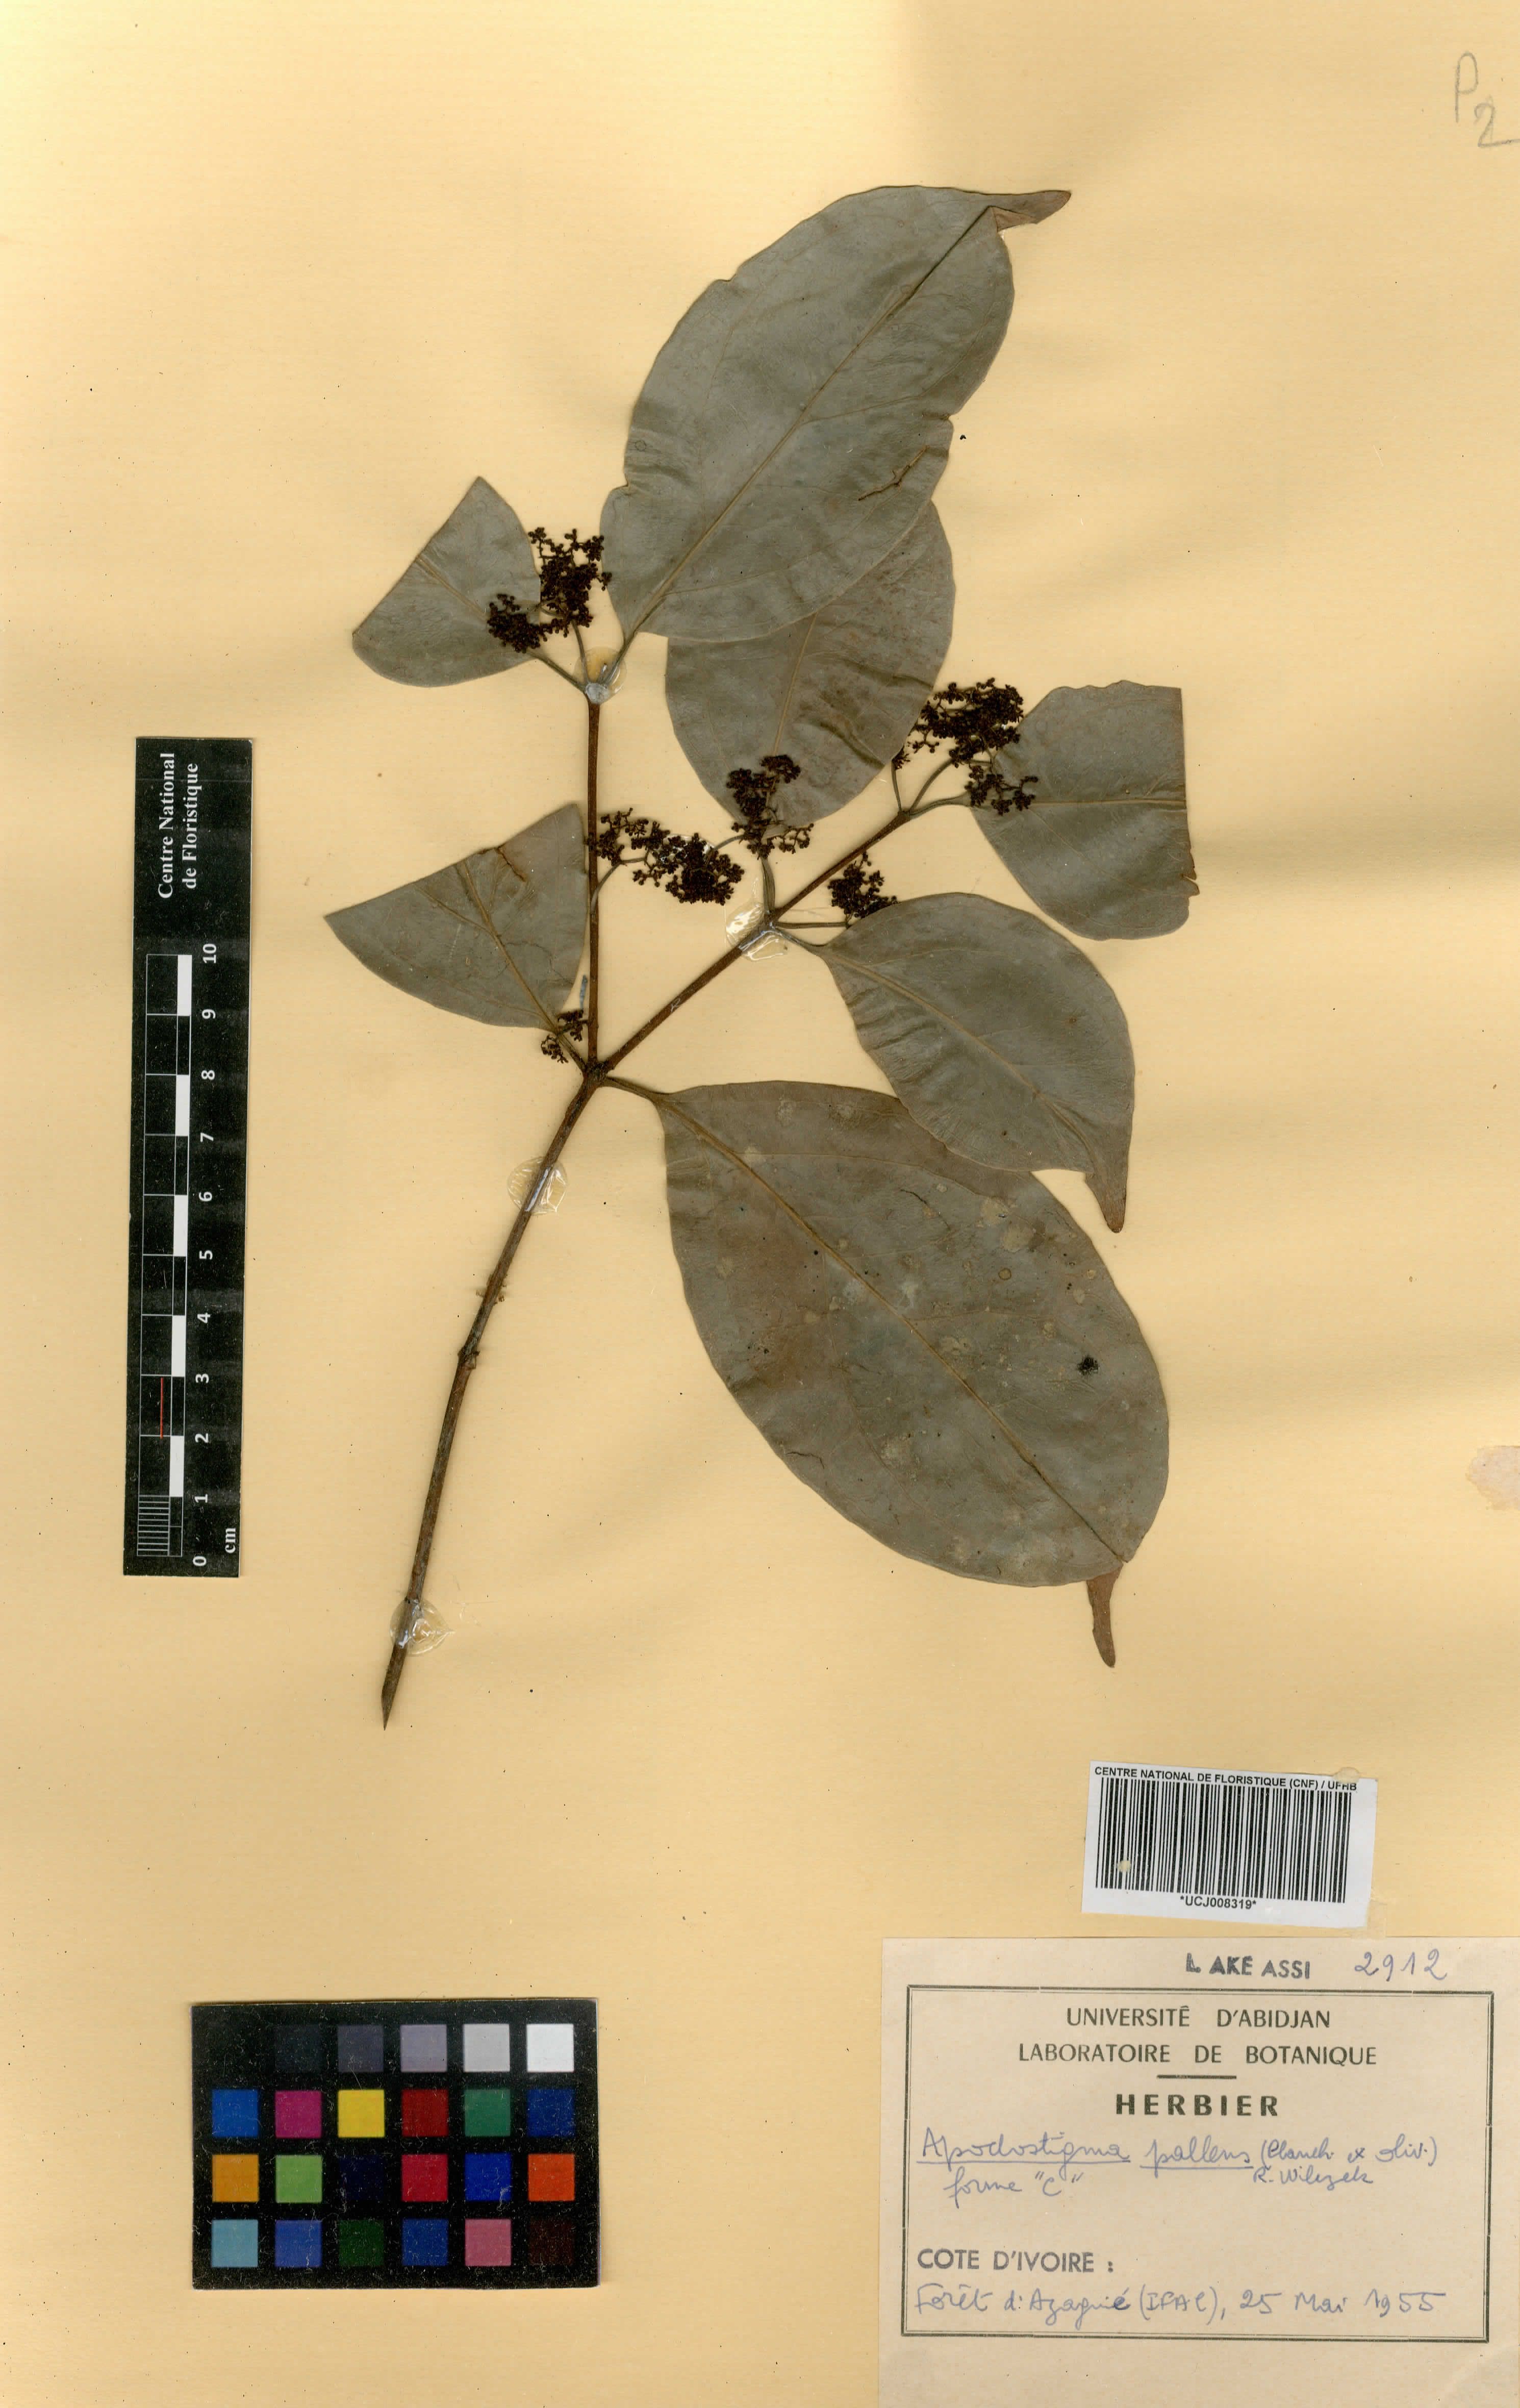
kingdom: Plantae
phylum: Tracheophyta
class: Magnoliopsida
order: Celastrales
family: Celastraceae
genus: Apodostigma
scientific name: Apodostigma pallens
